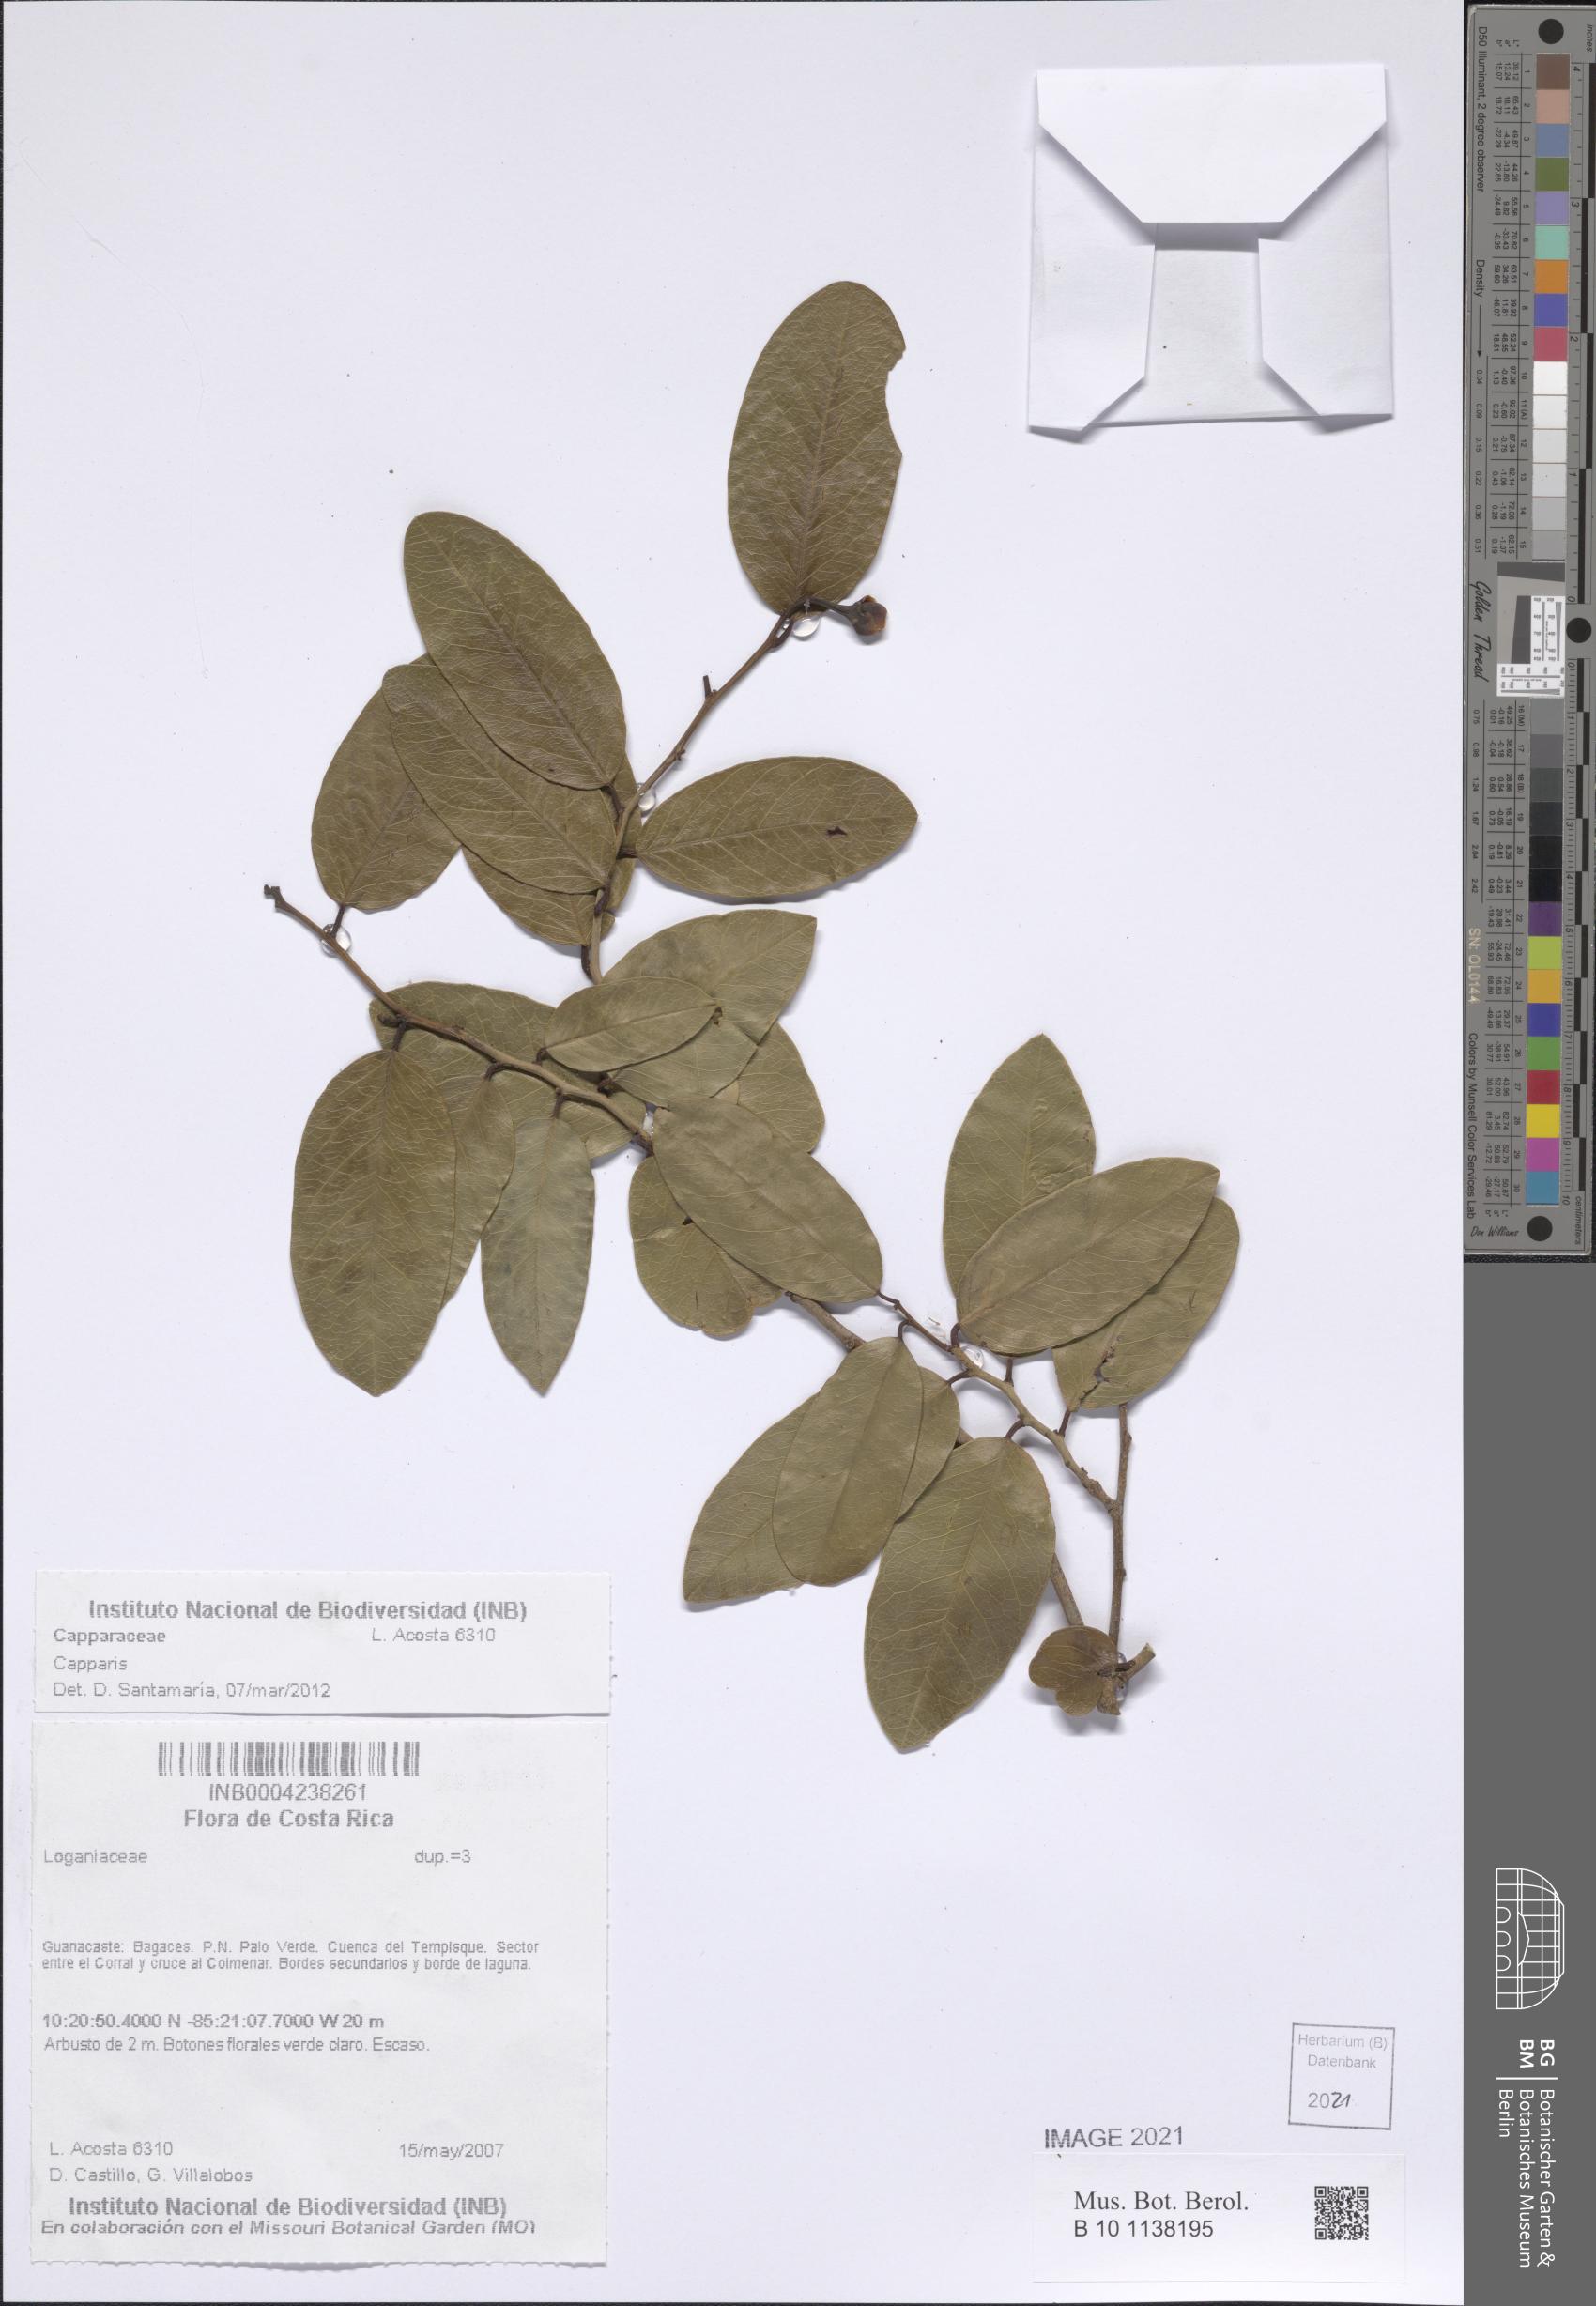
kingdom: Plantae
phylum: Tracheophyta
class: Magnoliopsida
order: Brassicales
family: Capparaceae
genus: Cynophalla
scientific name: Cynophalla flexuosa
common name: Capertree
